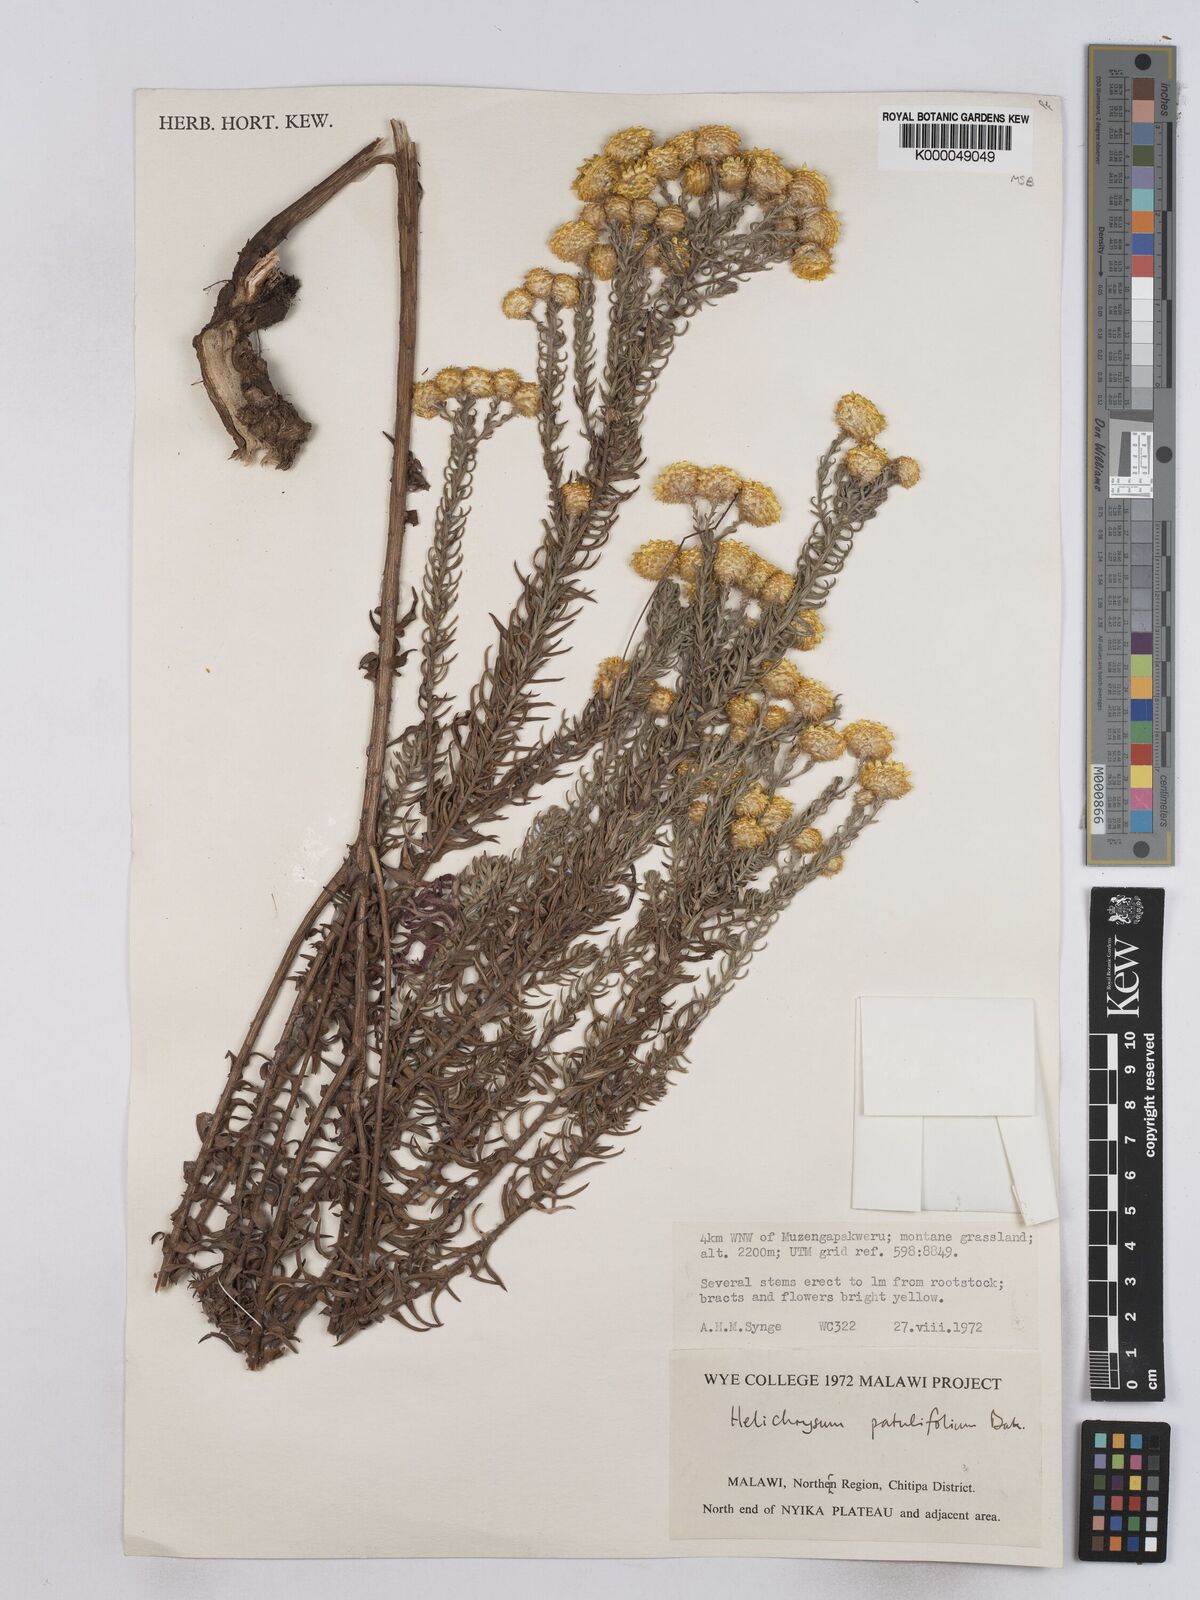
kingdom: Plantae
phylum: Tracheophyta
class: Magnoliopsida
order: Asterales
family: Asteraceae
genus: Helichrysum
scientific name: Helichrysum patulifolium
